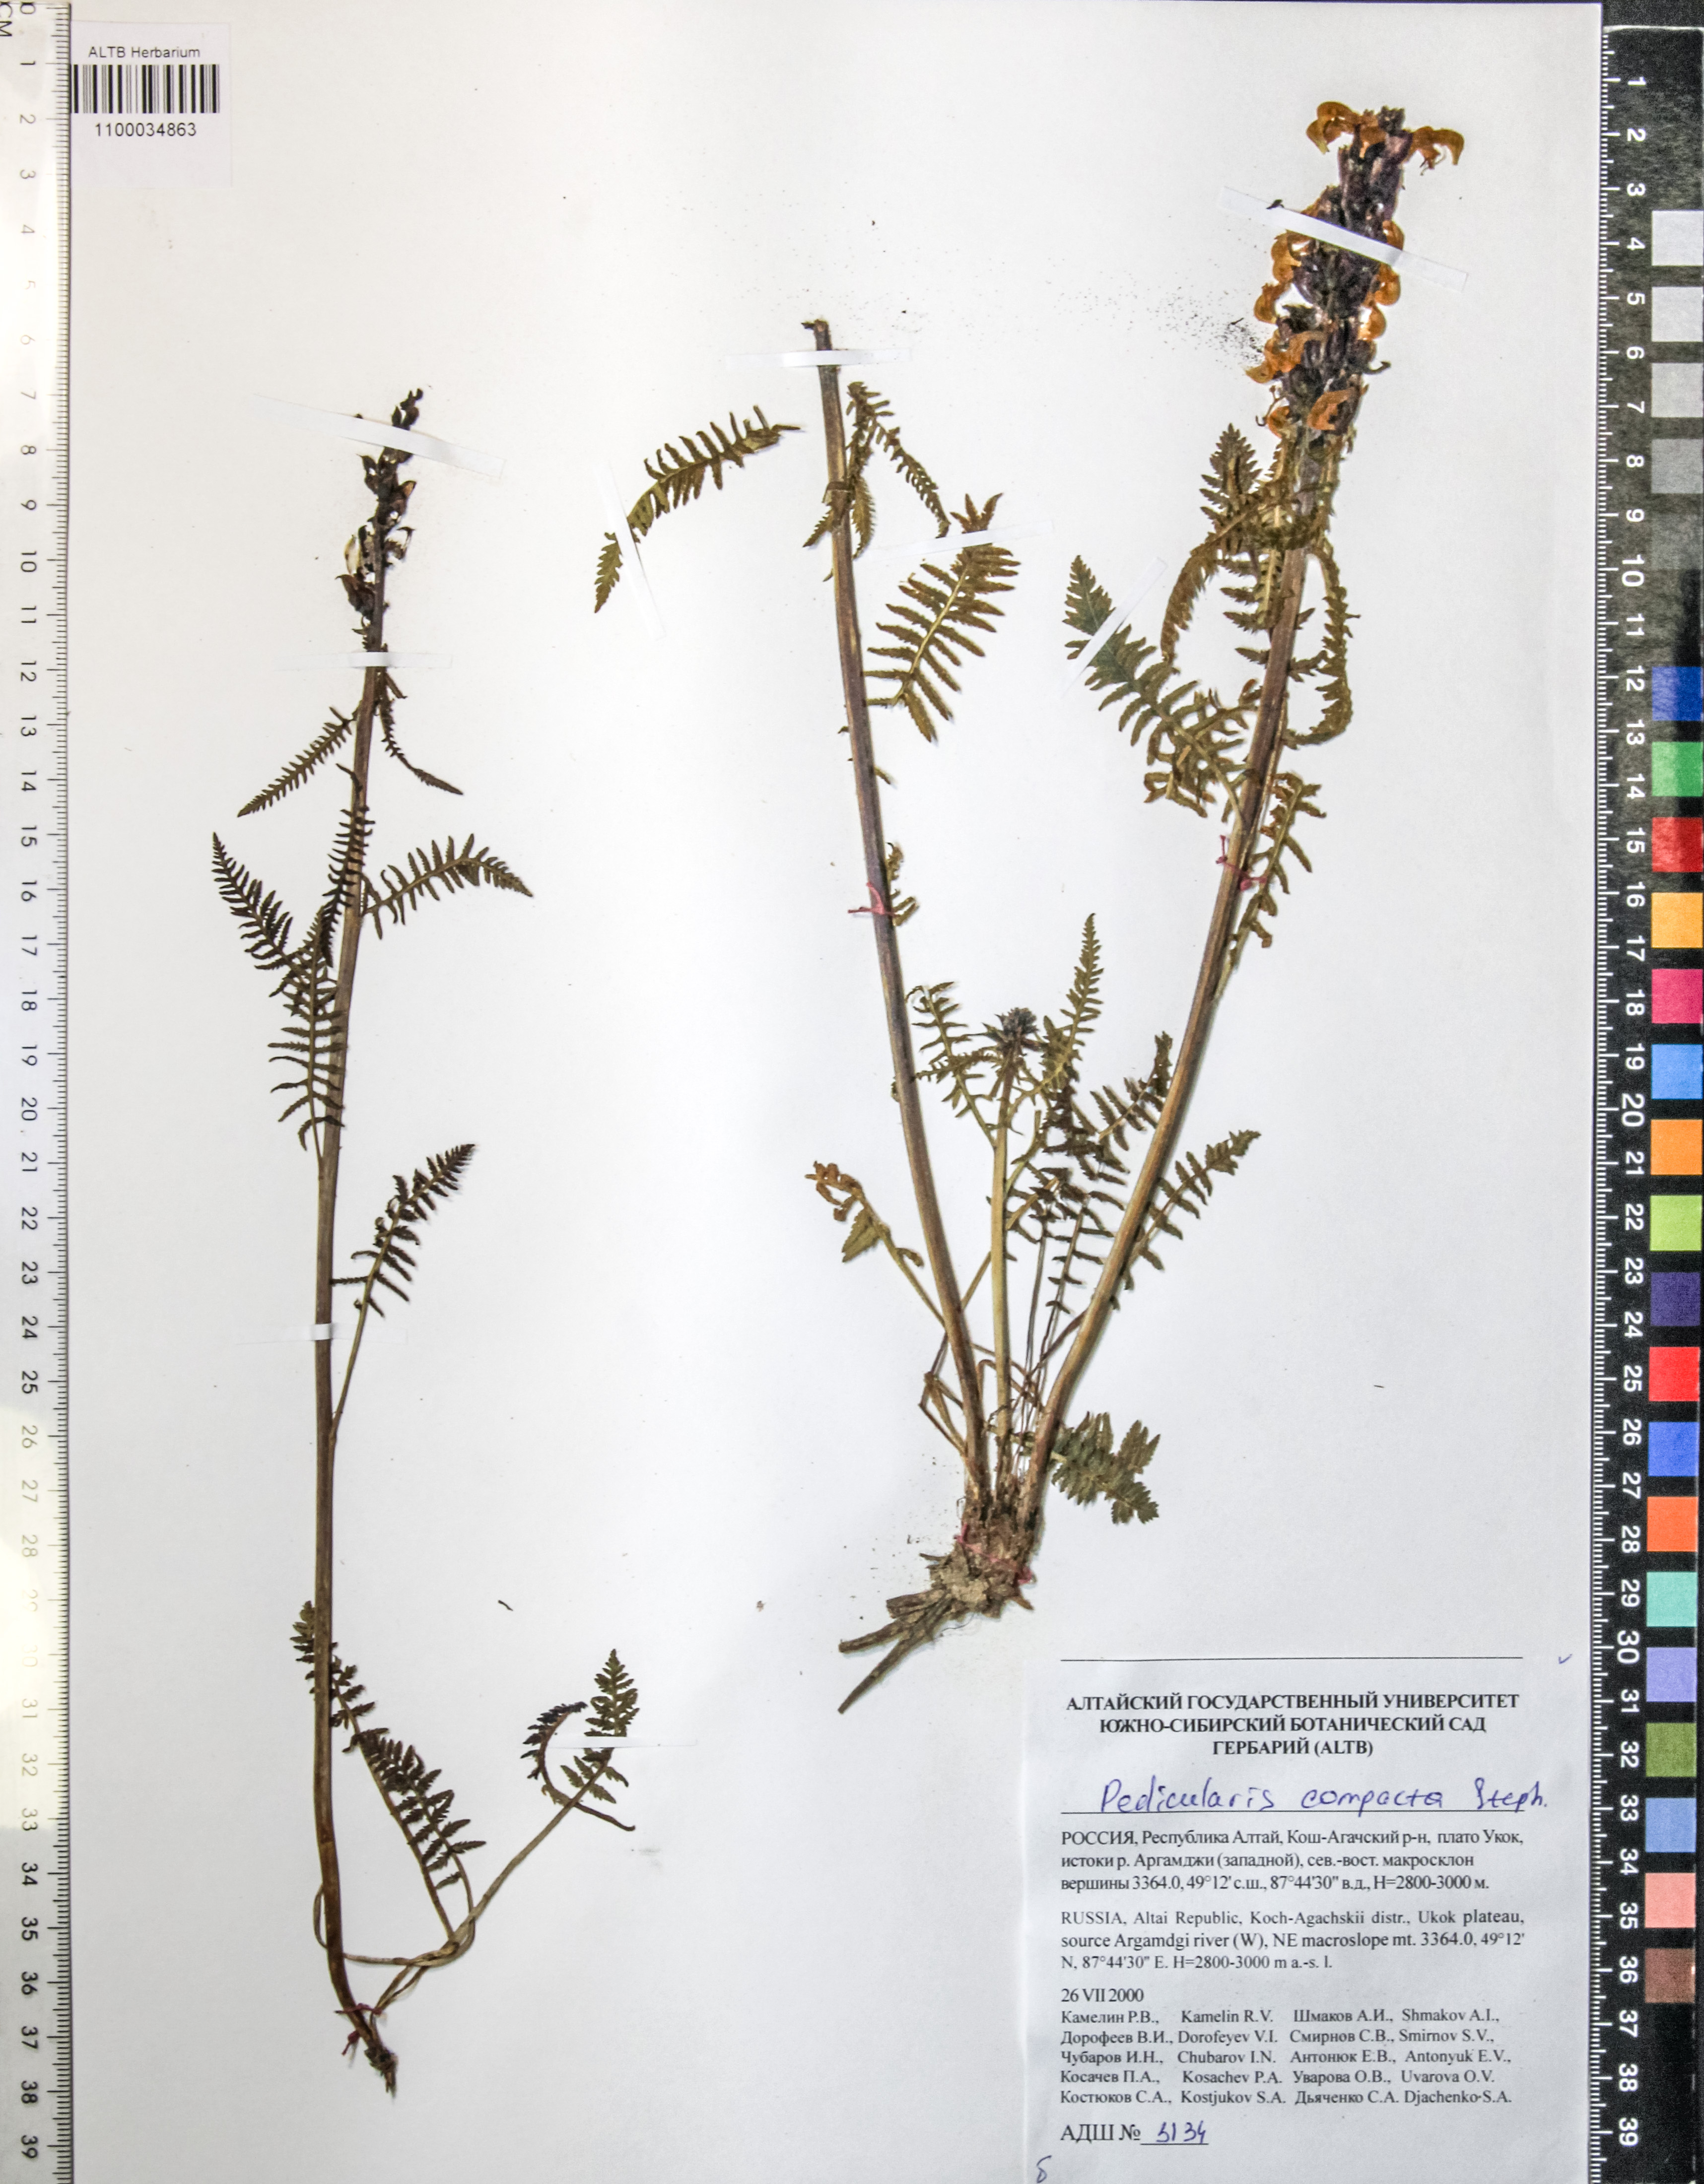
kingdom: Plantae
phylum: Tracheophyta
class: Magnoliopsida
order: Lamiales
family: Orobanchaceae
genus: Pedicularis
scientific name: Pedicularis compacta
